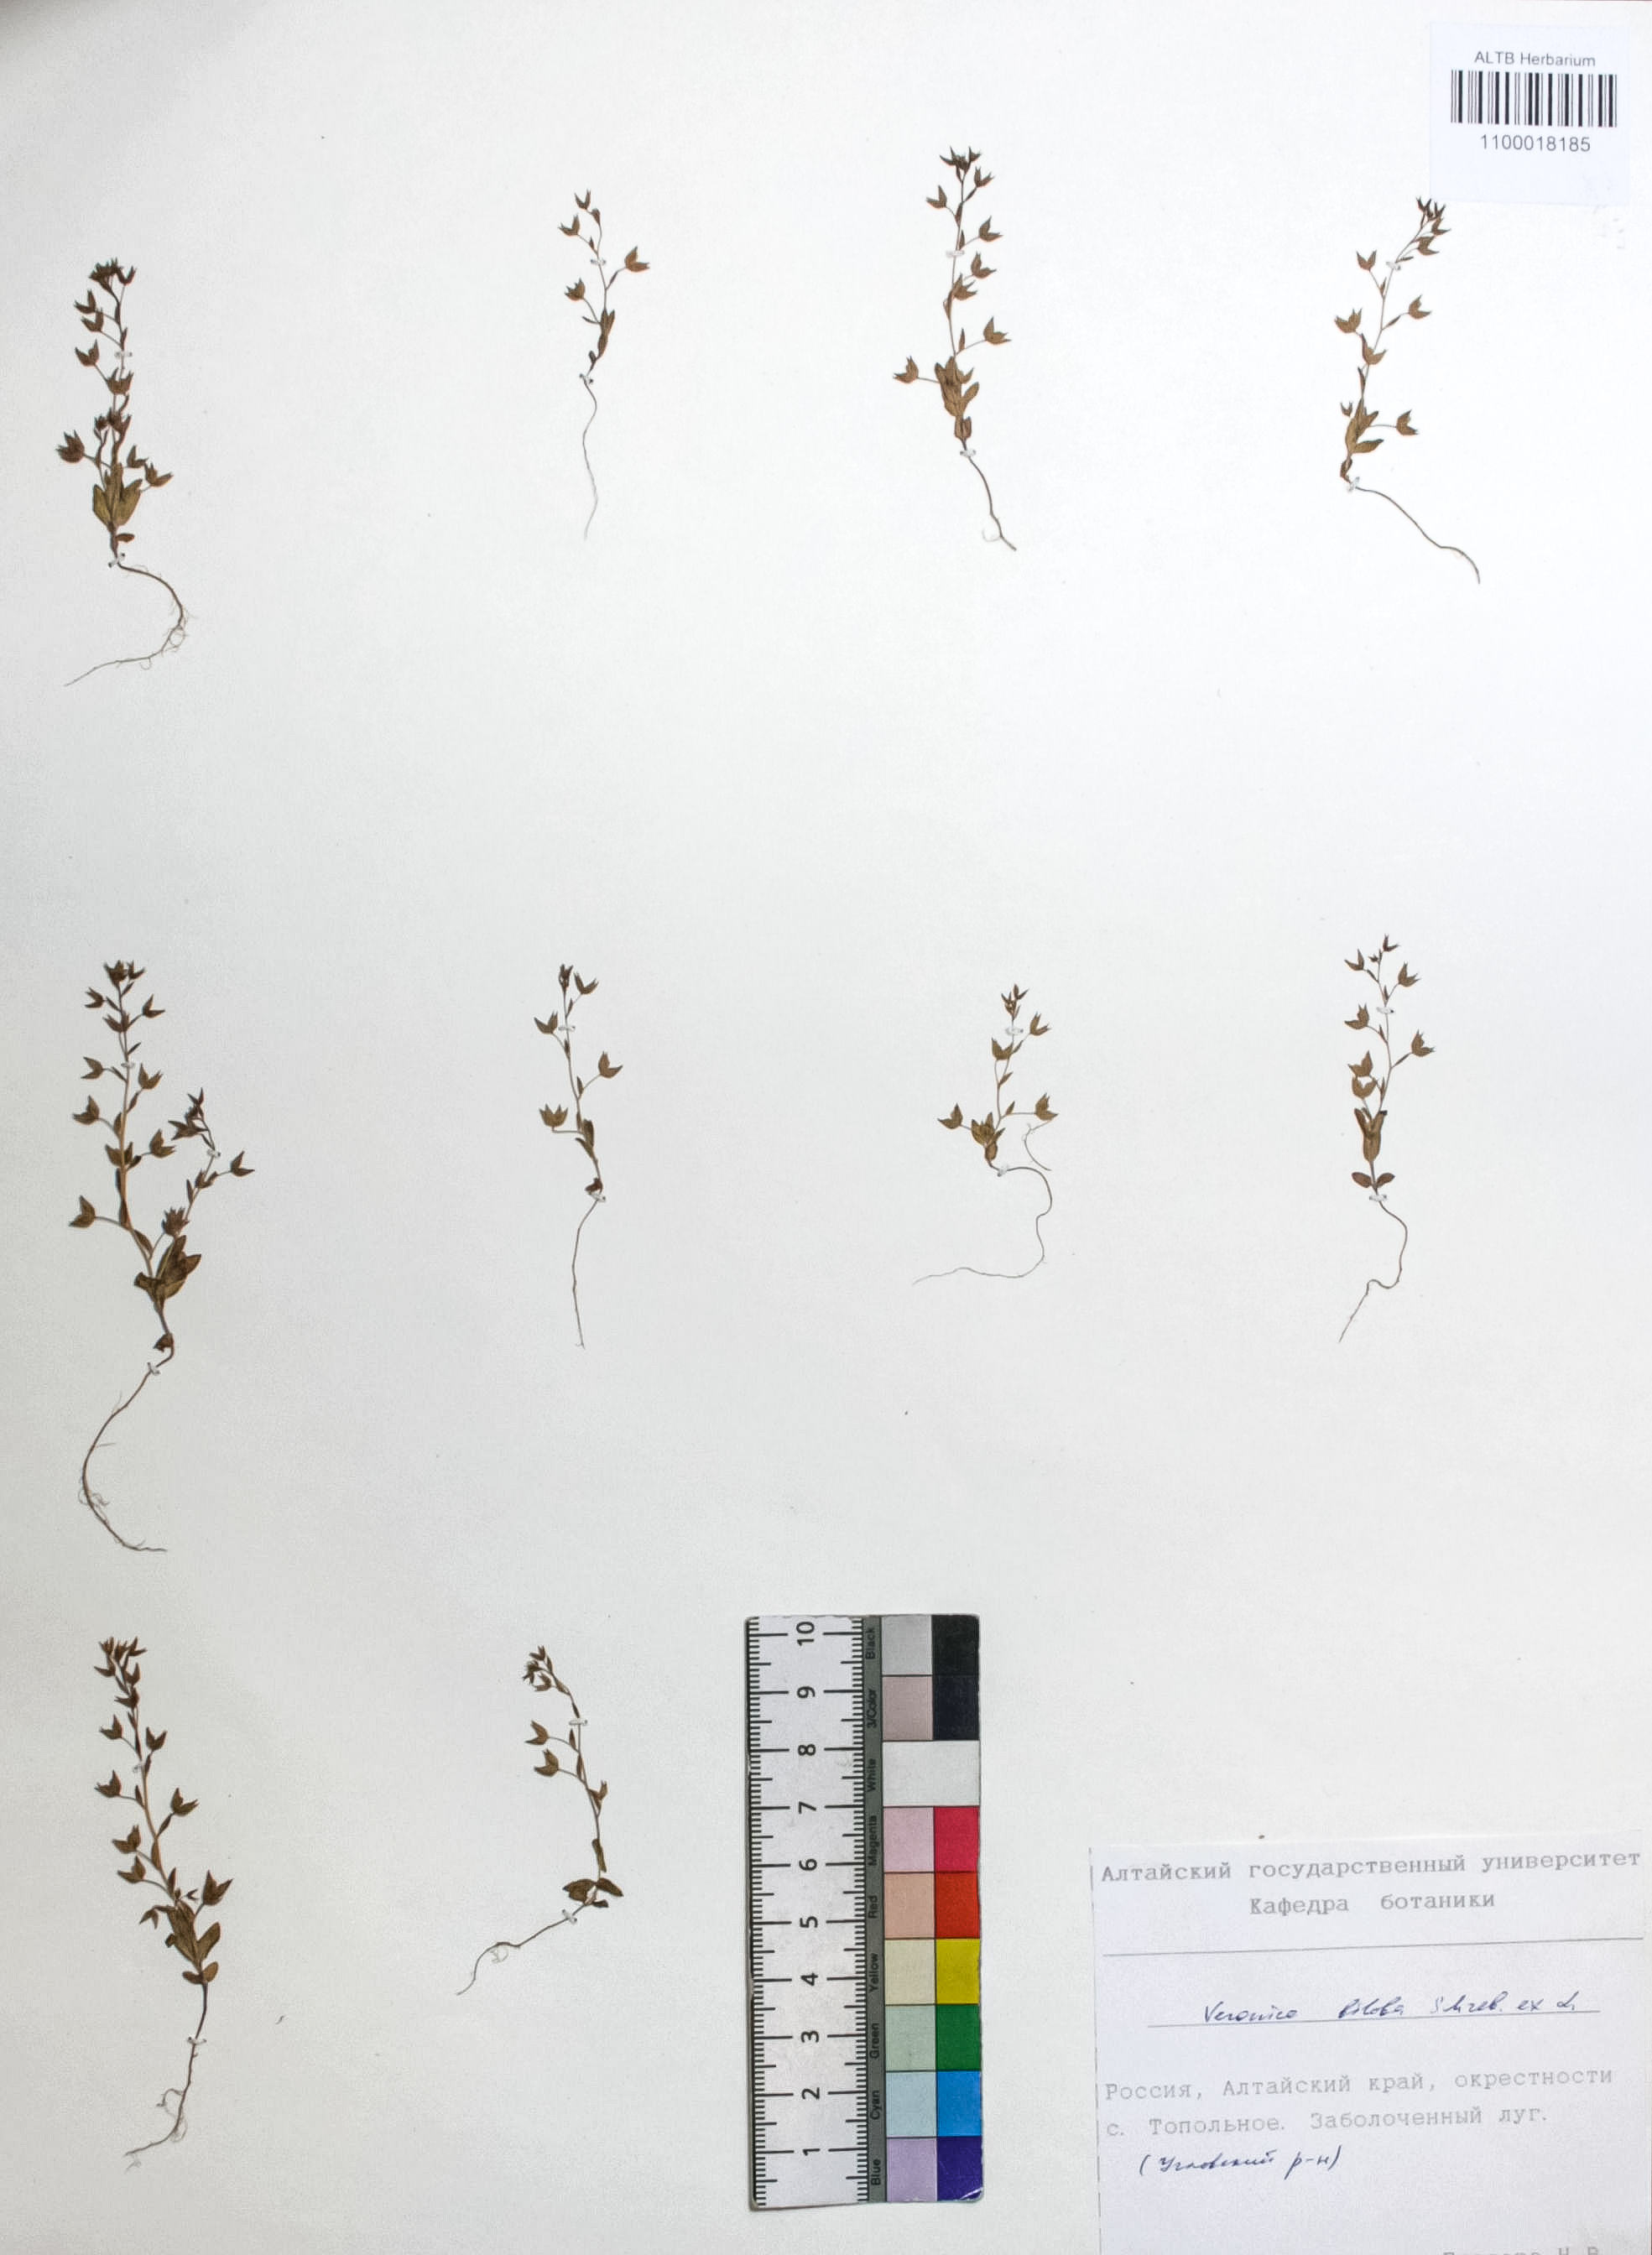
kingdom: Plantae
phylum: Tracheophyta
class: Magnoliopsida
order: Lamiales
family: Plantaginaceae
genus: Veronica
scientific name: Veronica biloba
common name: Twolobe speedwell
